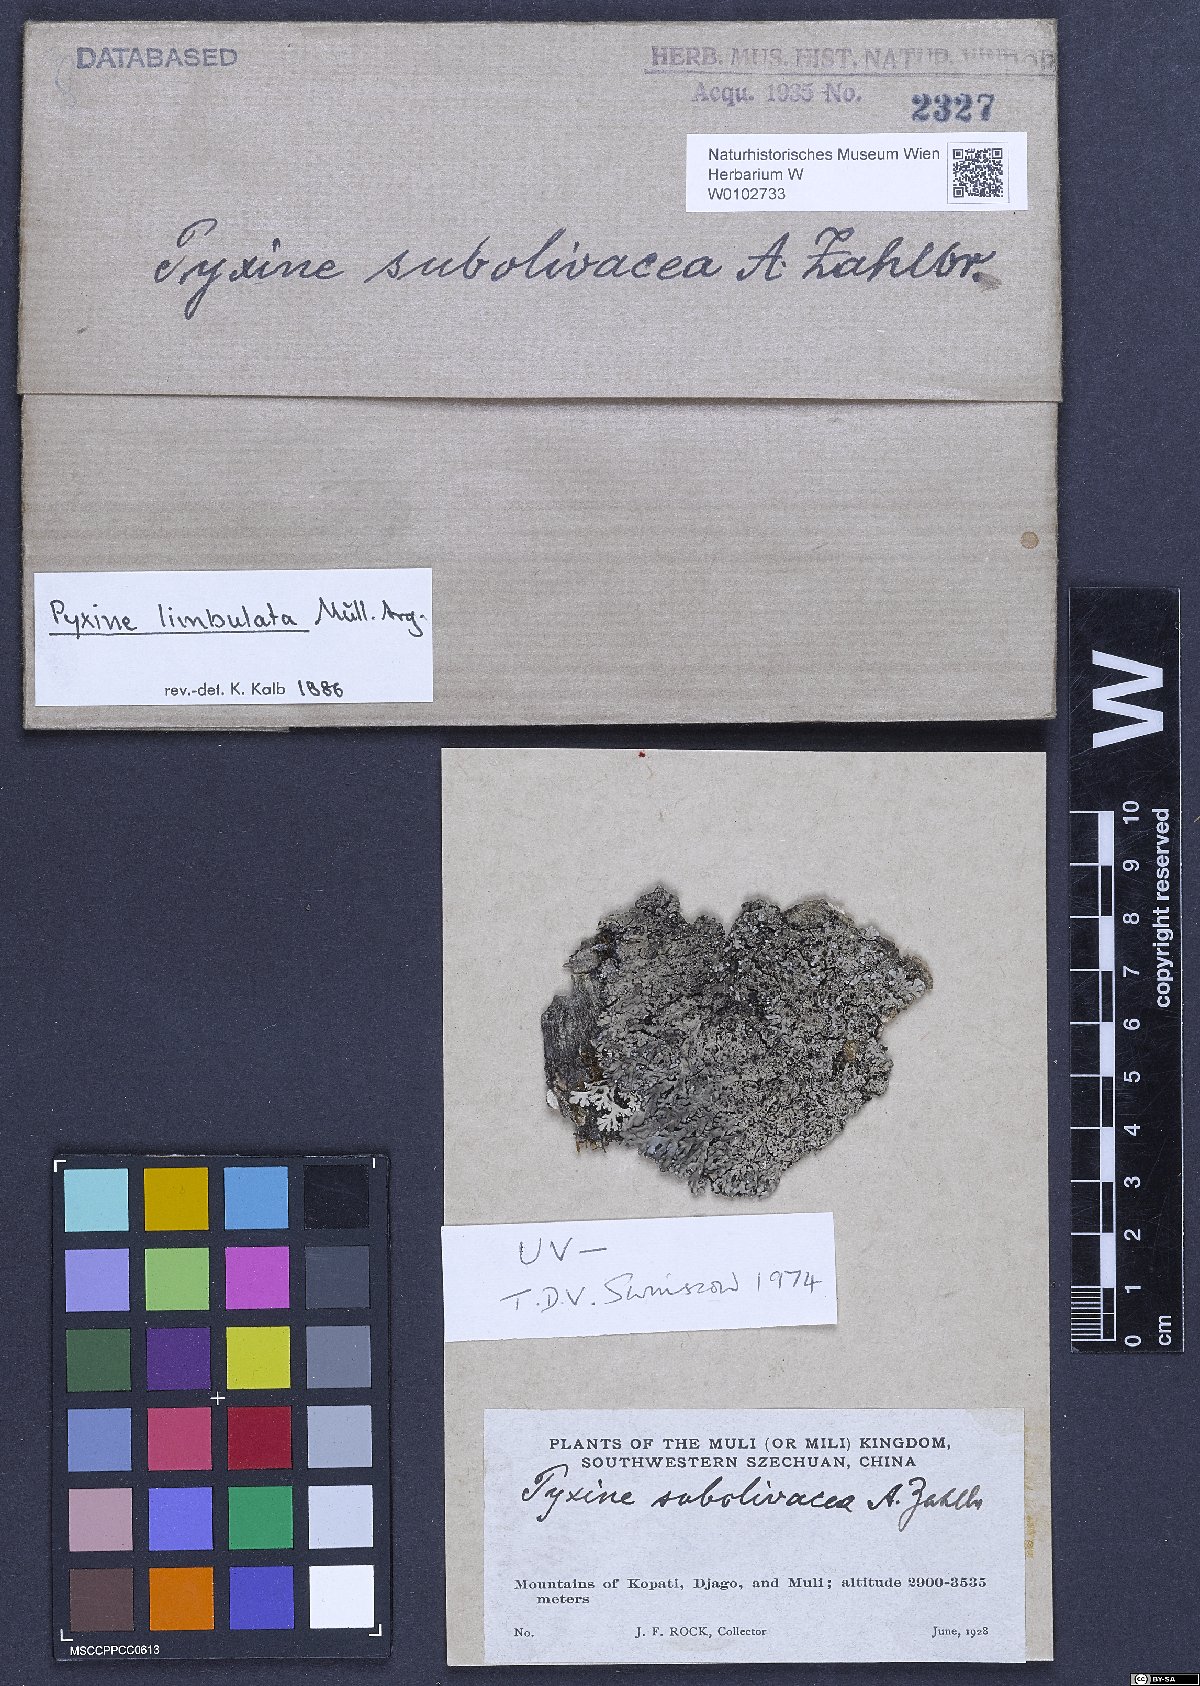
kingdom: Fungi
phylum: Ascomycota
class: Lecanoromycetes
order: Caliciales
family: Caliciaceae
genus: Pyxine
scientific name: Pyxine limbulata
